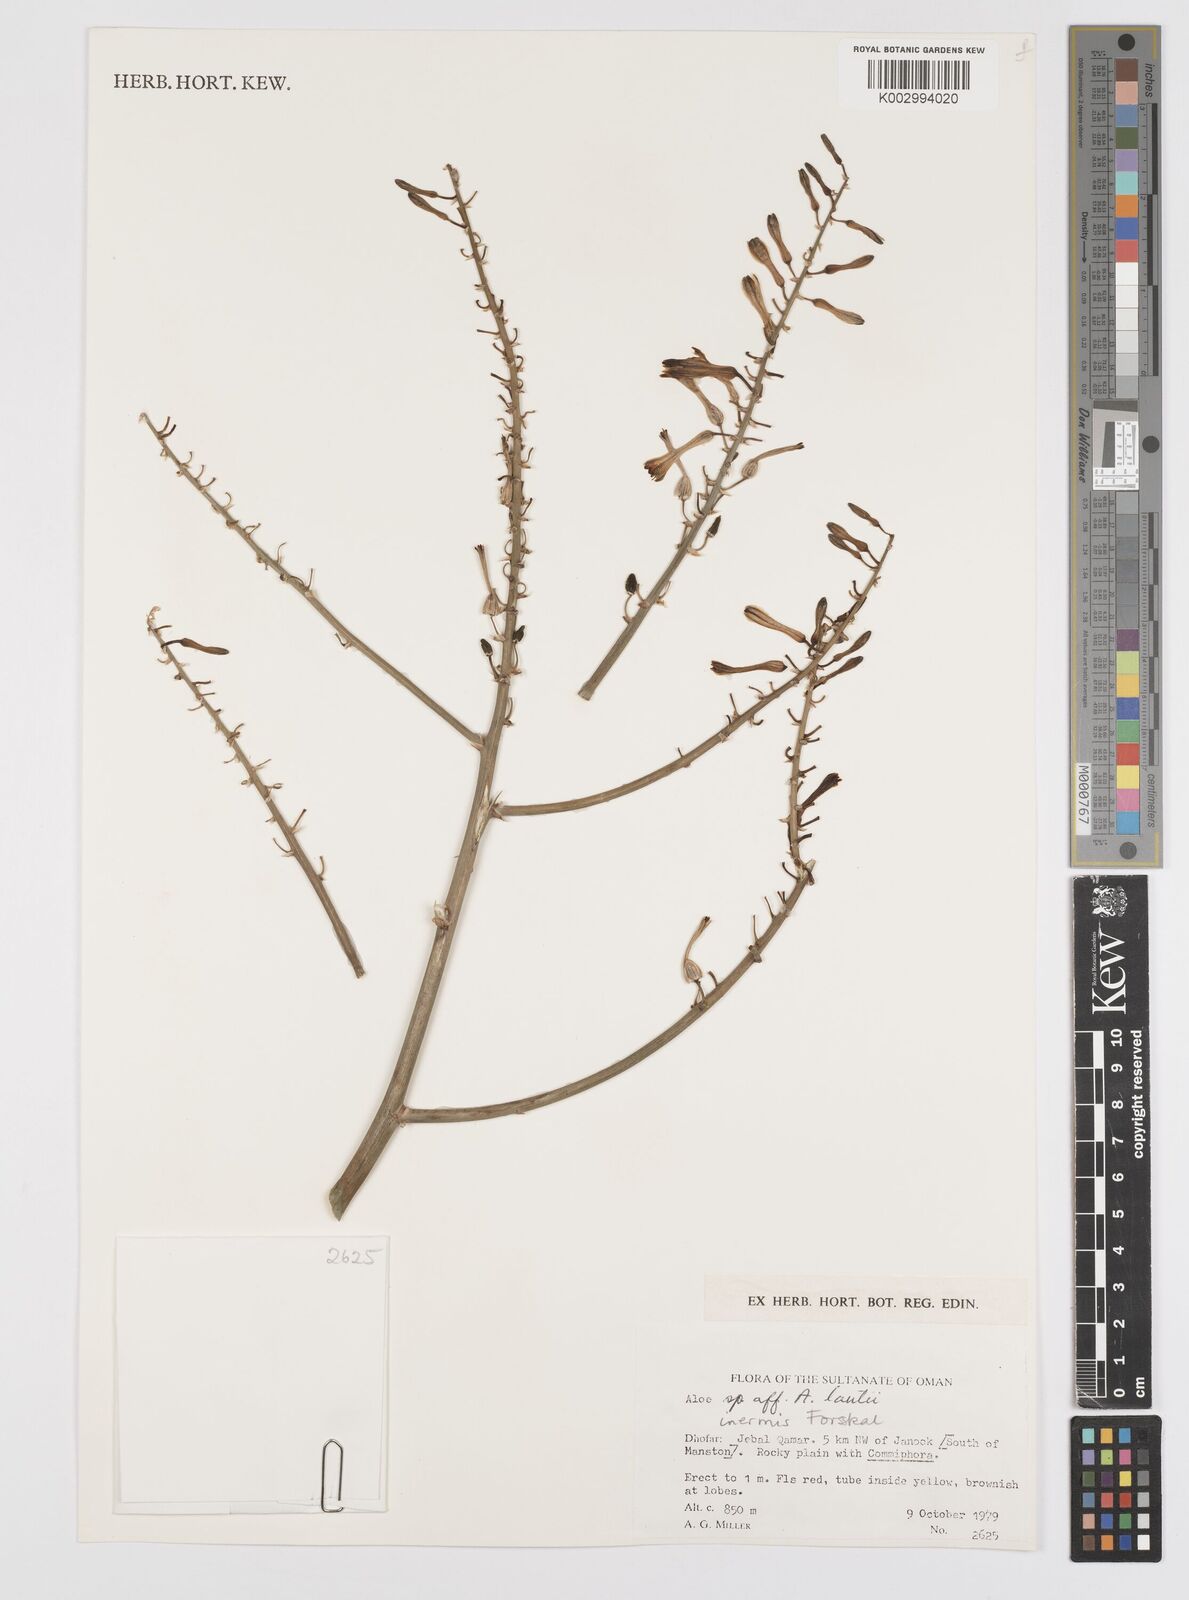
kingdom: Plantae
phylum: Tracheophyta
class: Liliopsida
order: Asparagales
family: Asphodelaceae
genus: Aloe
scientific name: Aloe inermis
